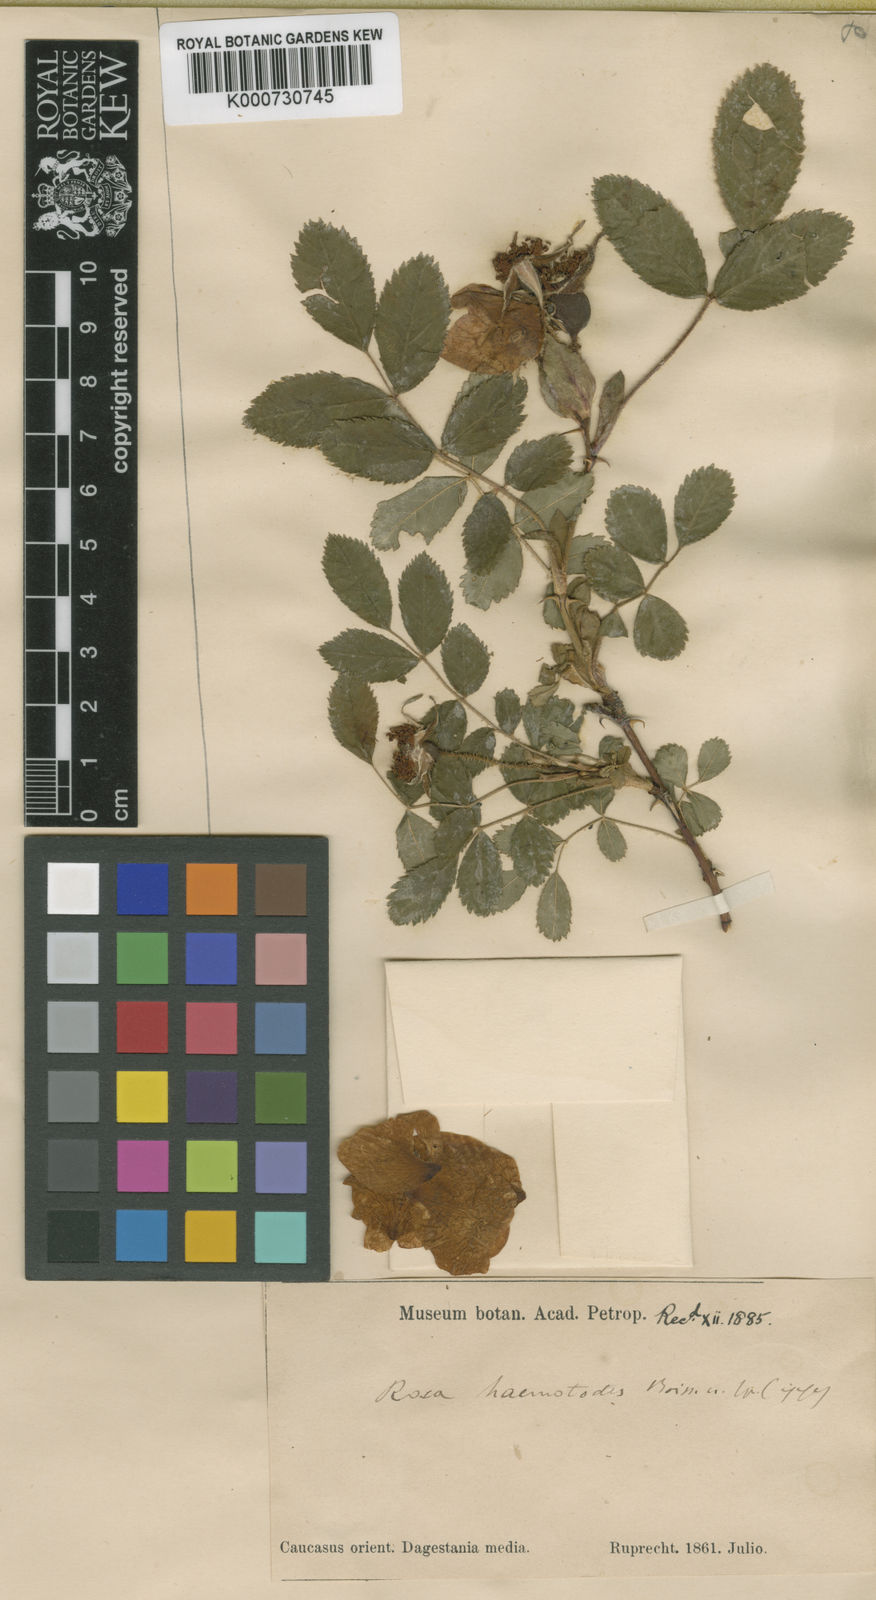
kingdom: Plantae
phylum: Tracheophyta
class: Magnoliopsida
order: Rosales
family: Rosaceae
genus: Rosa
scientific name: Rosa oxyodon
